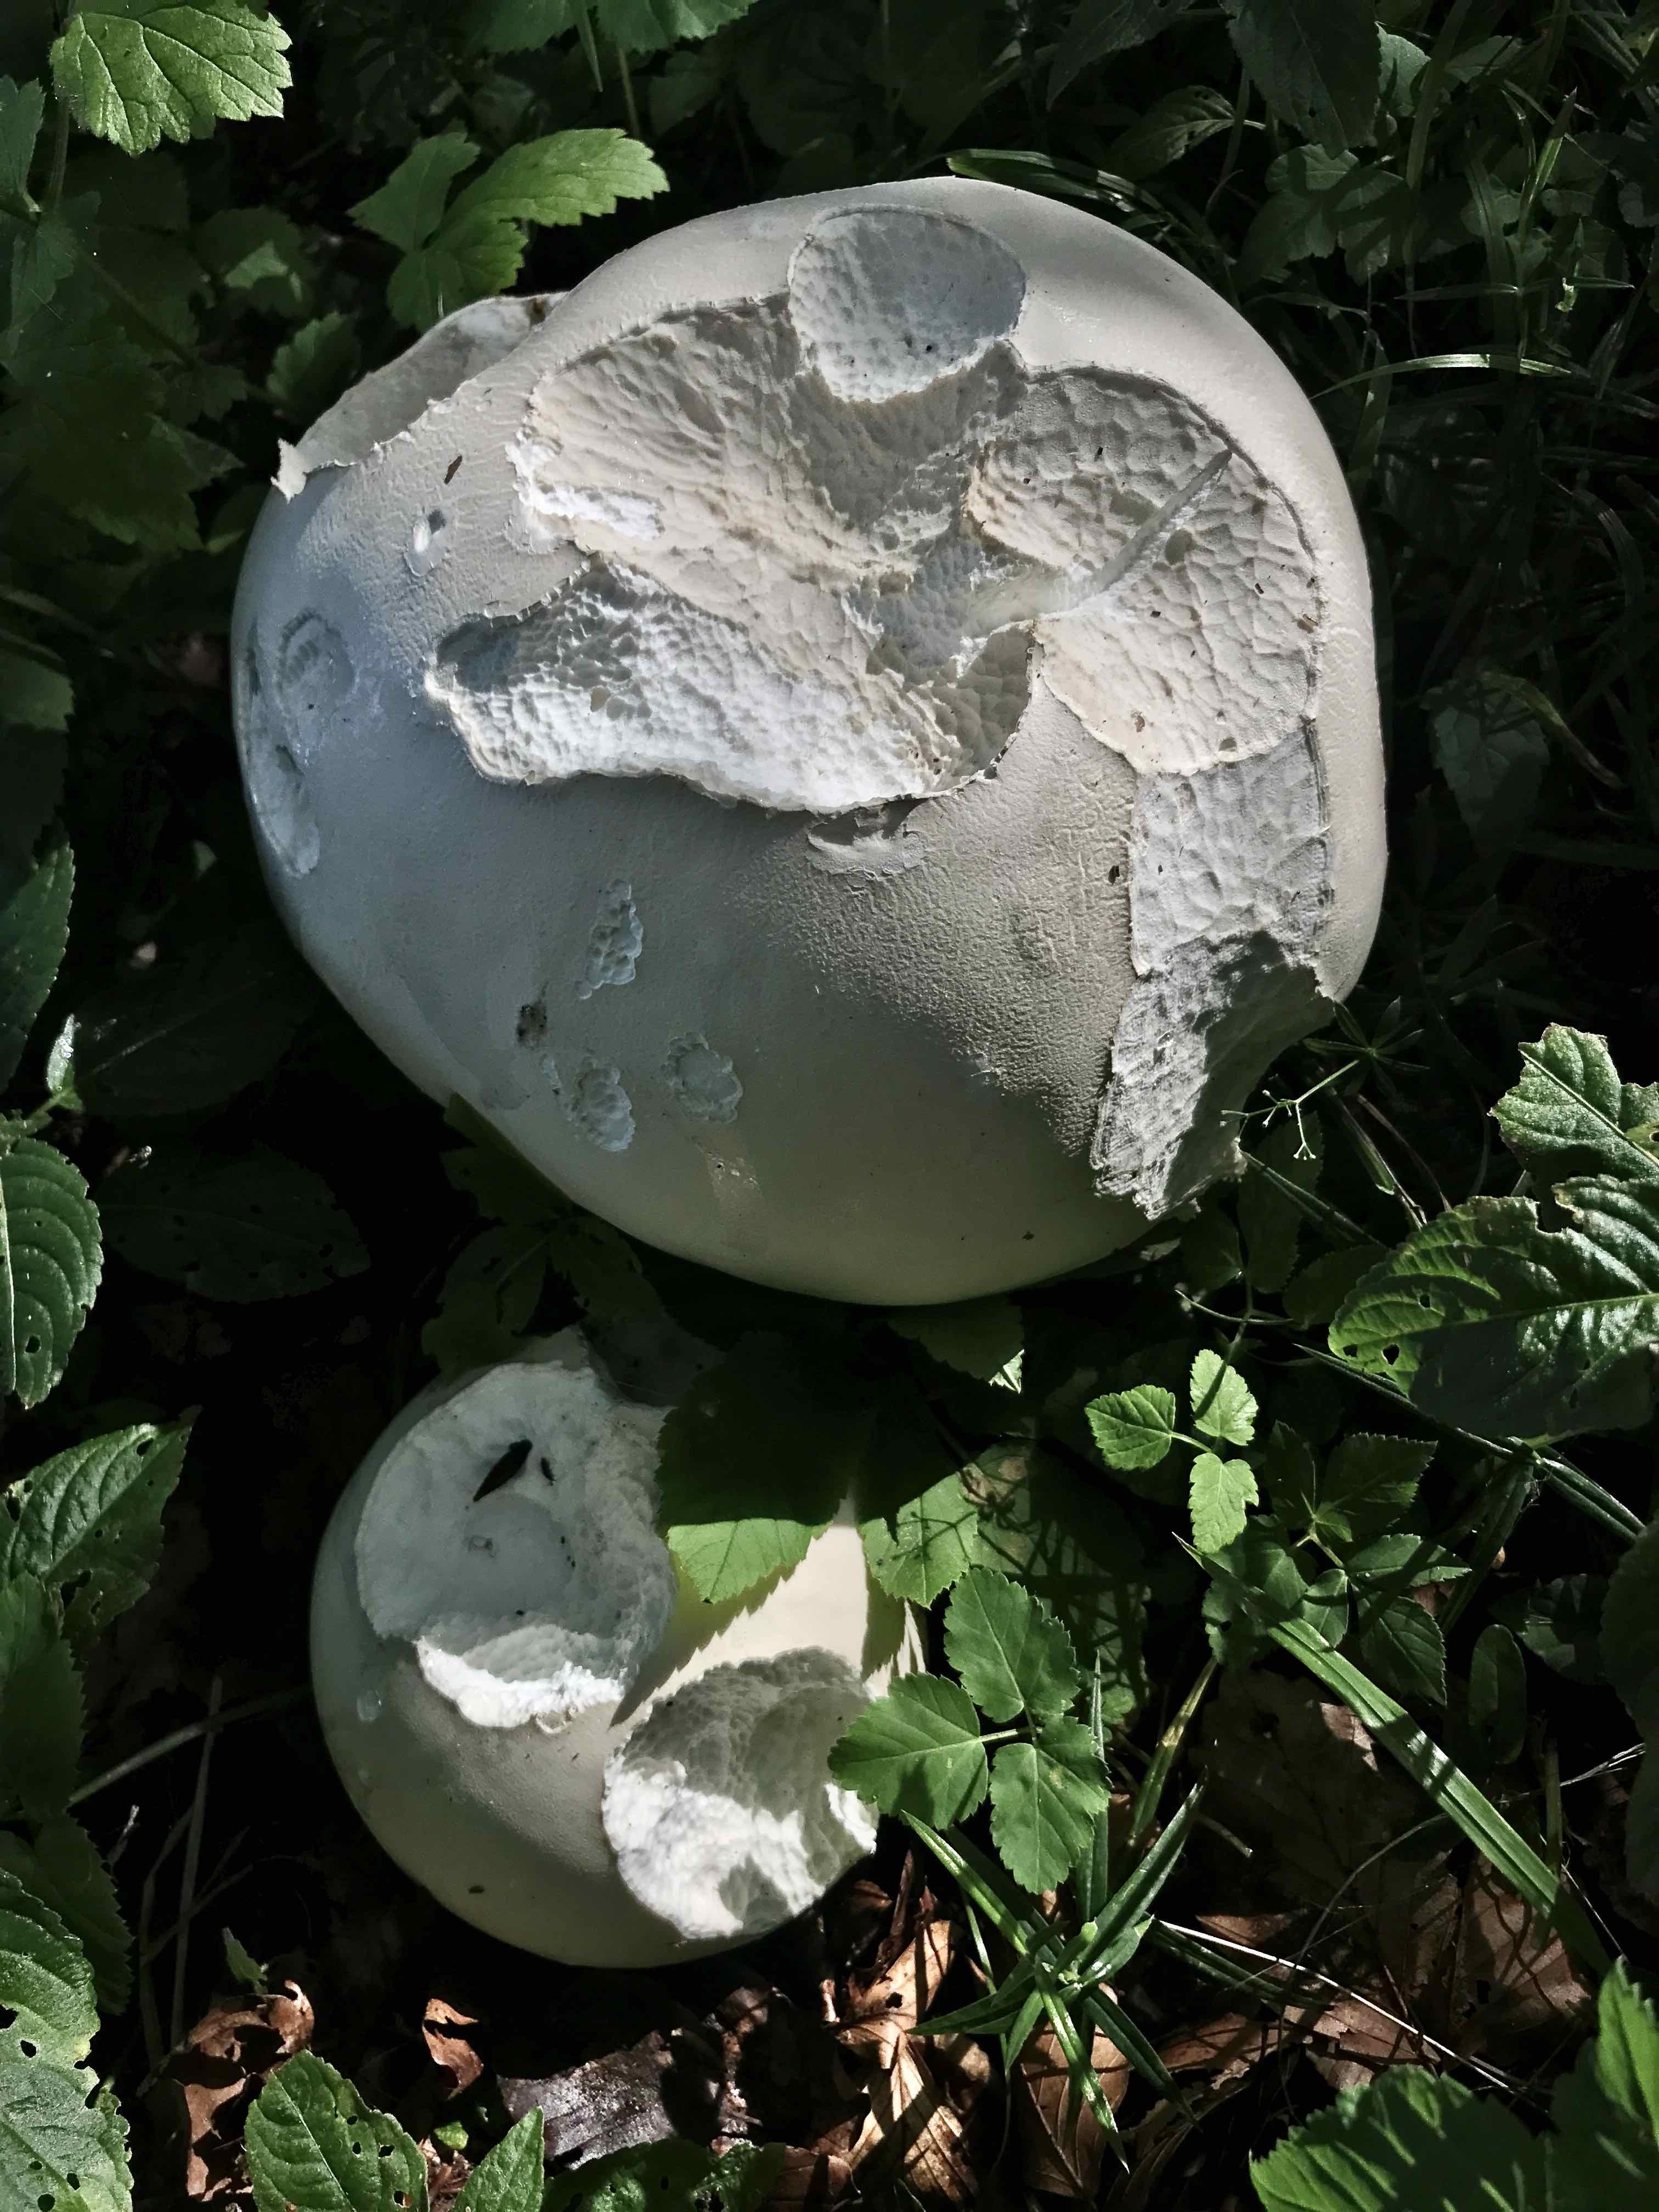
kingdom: Fungi
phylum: Basidiomycota
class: Agaricomycetes
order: Agaricales
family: Lycoperdaceae
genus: Calvatia
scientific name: Calvatia gigantea
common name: kæmpestøvbold
